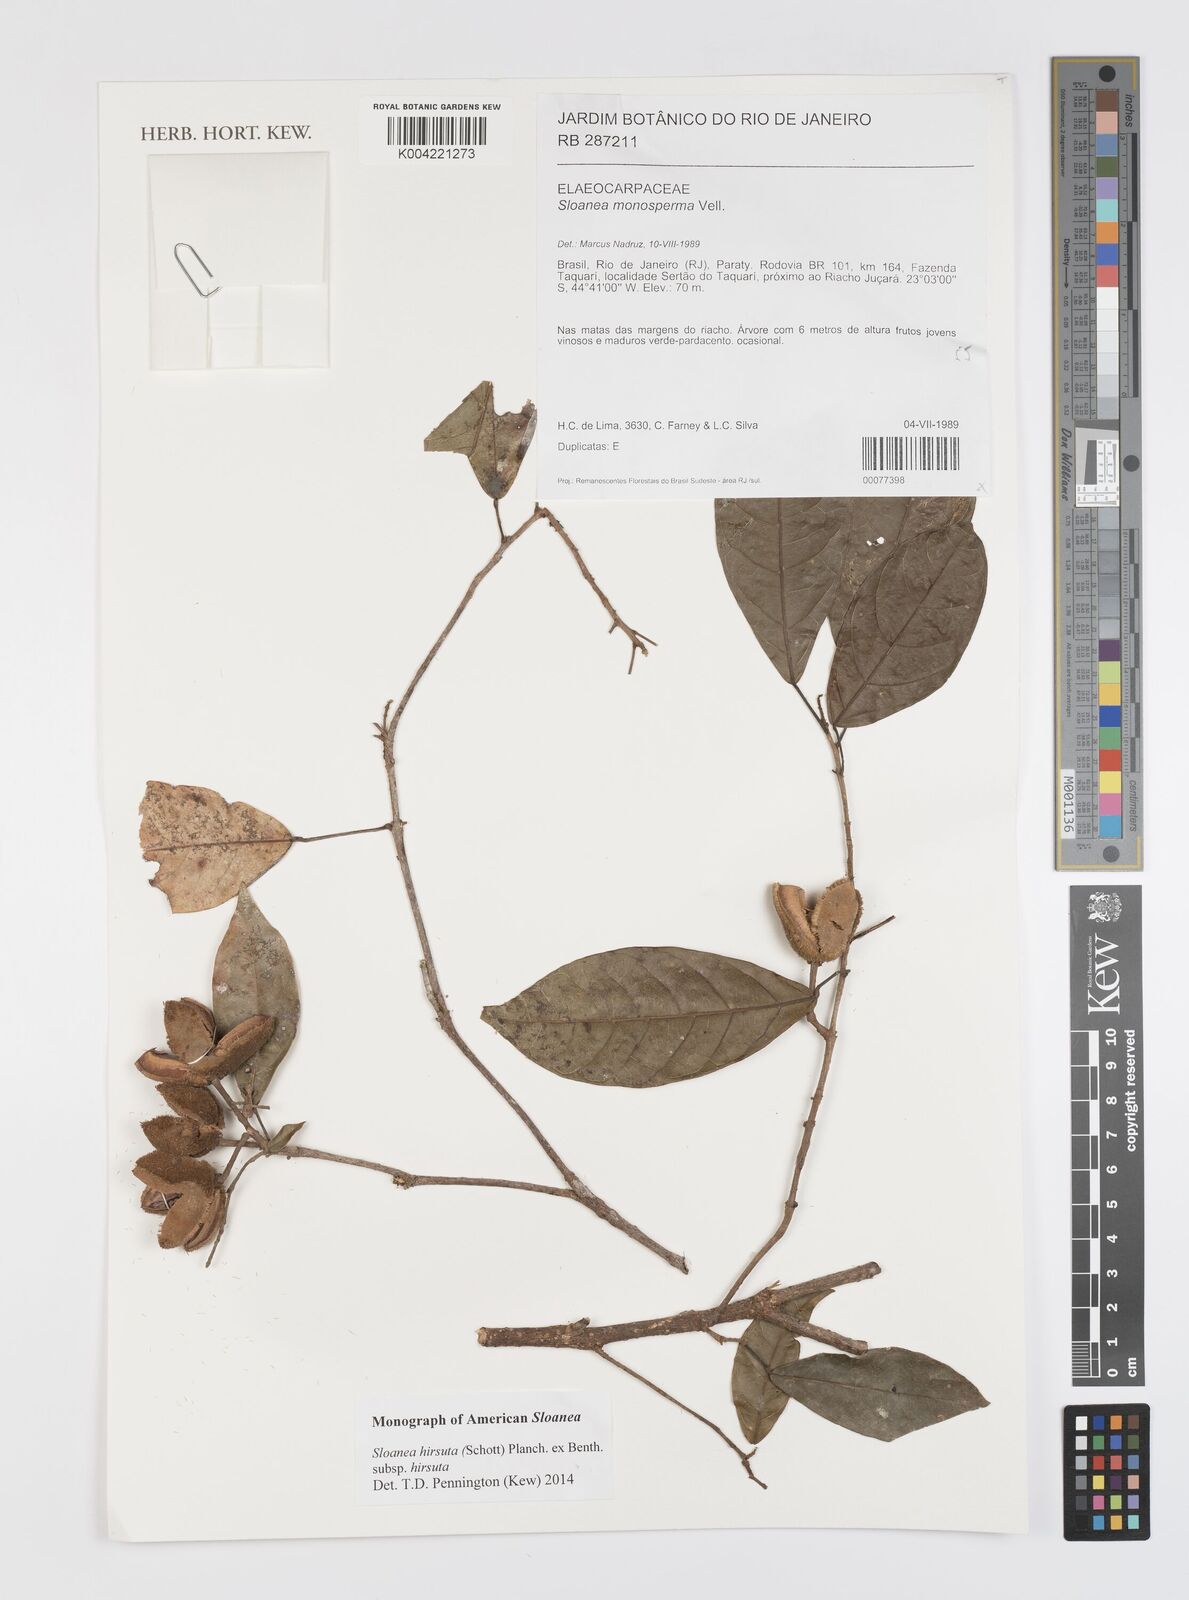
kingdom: Plantae
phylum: Tracheophyta
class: Magnoliopsida
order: Oxalidales
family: Elaeocarpaceae
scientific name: Elaeocarpaceae
